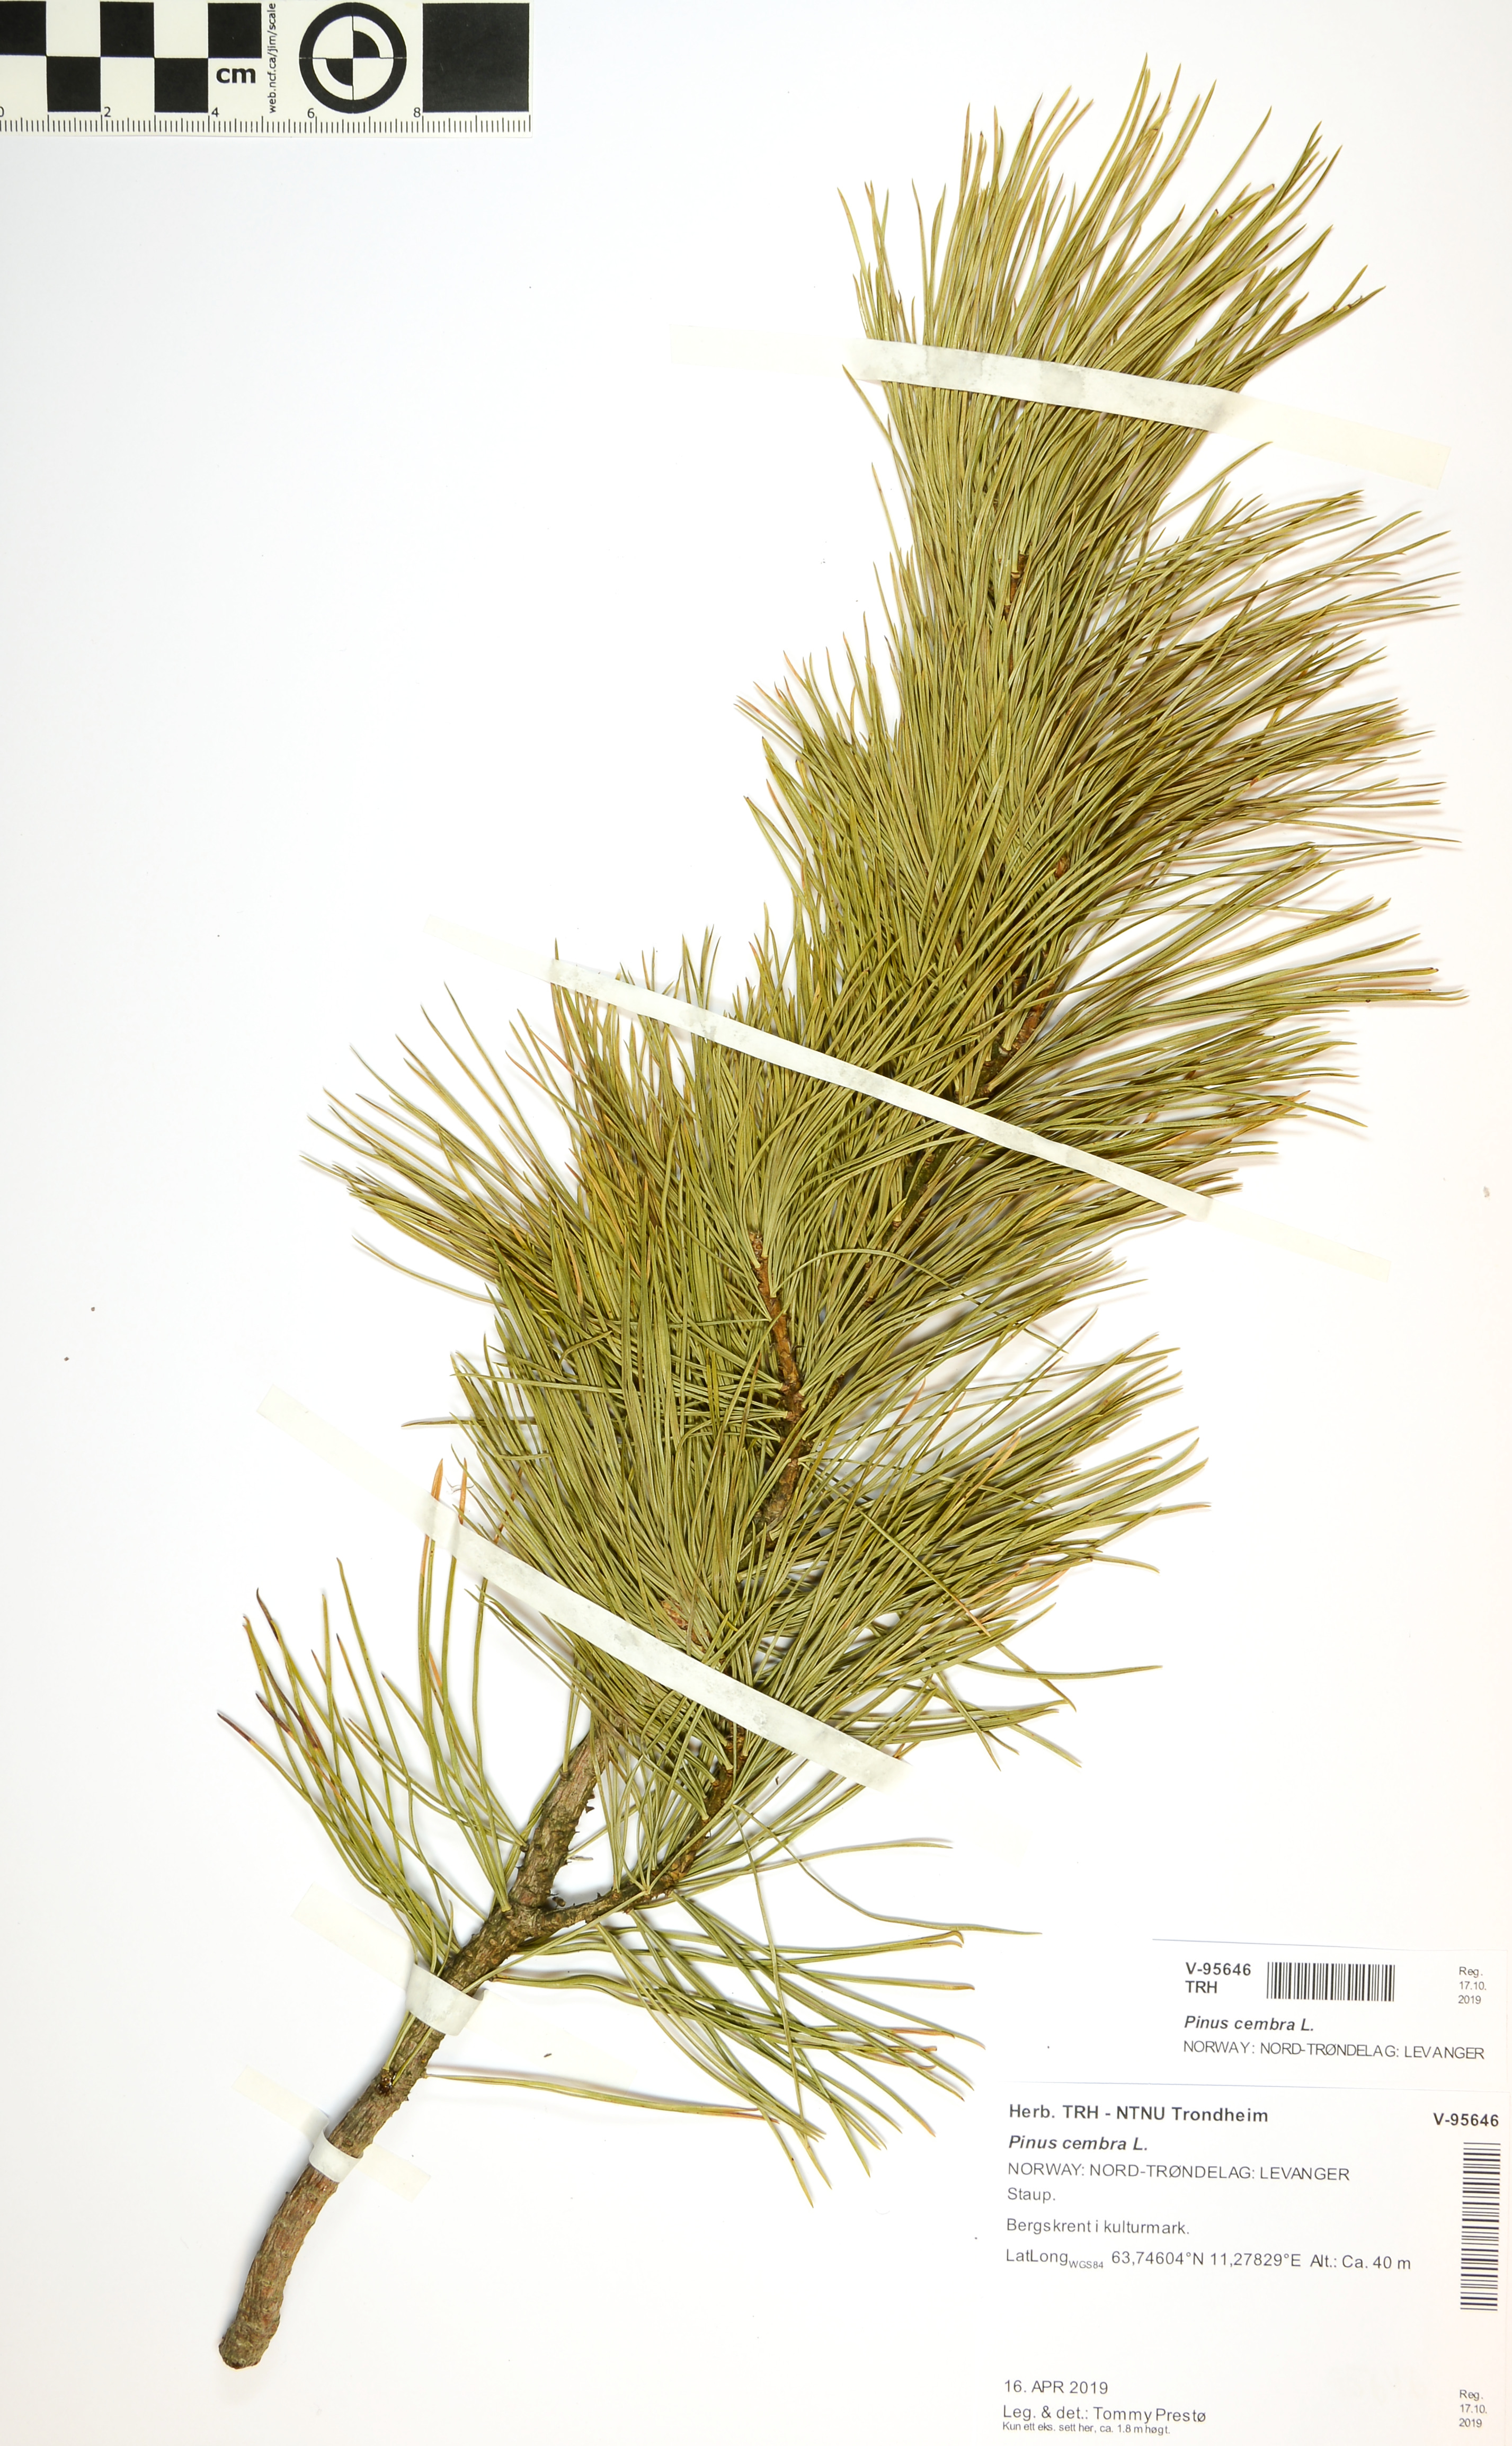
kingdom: Plantae
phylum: Tracheophyta
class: Pinopsida
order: Pinales
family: Pinaceae
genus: Pinus
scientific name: Pinus cembra
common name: Arolla pine
